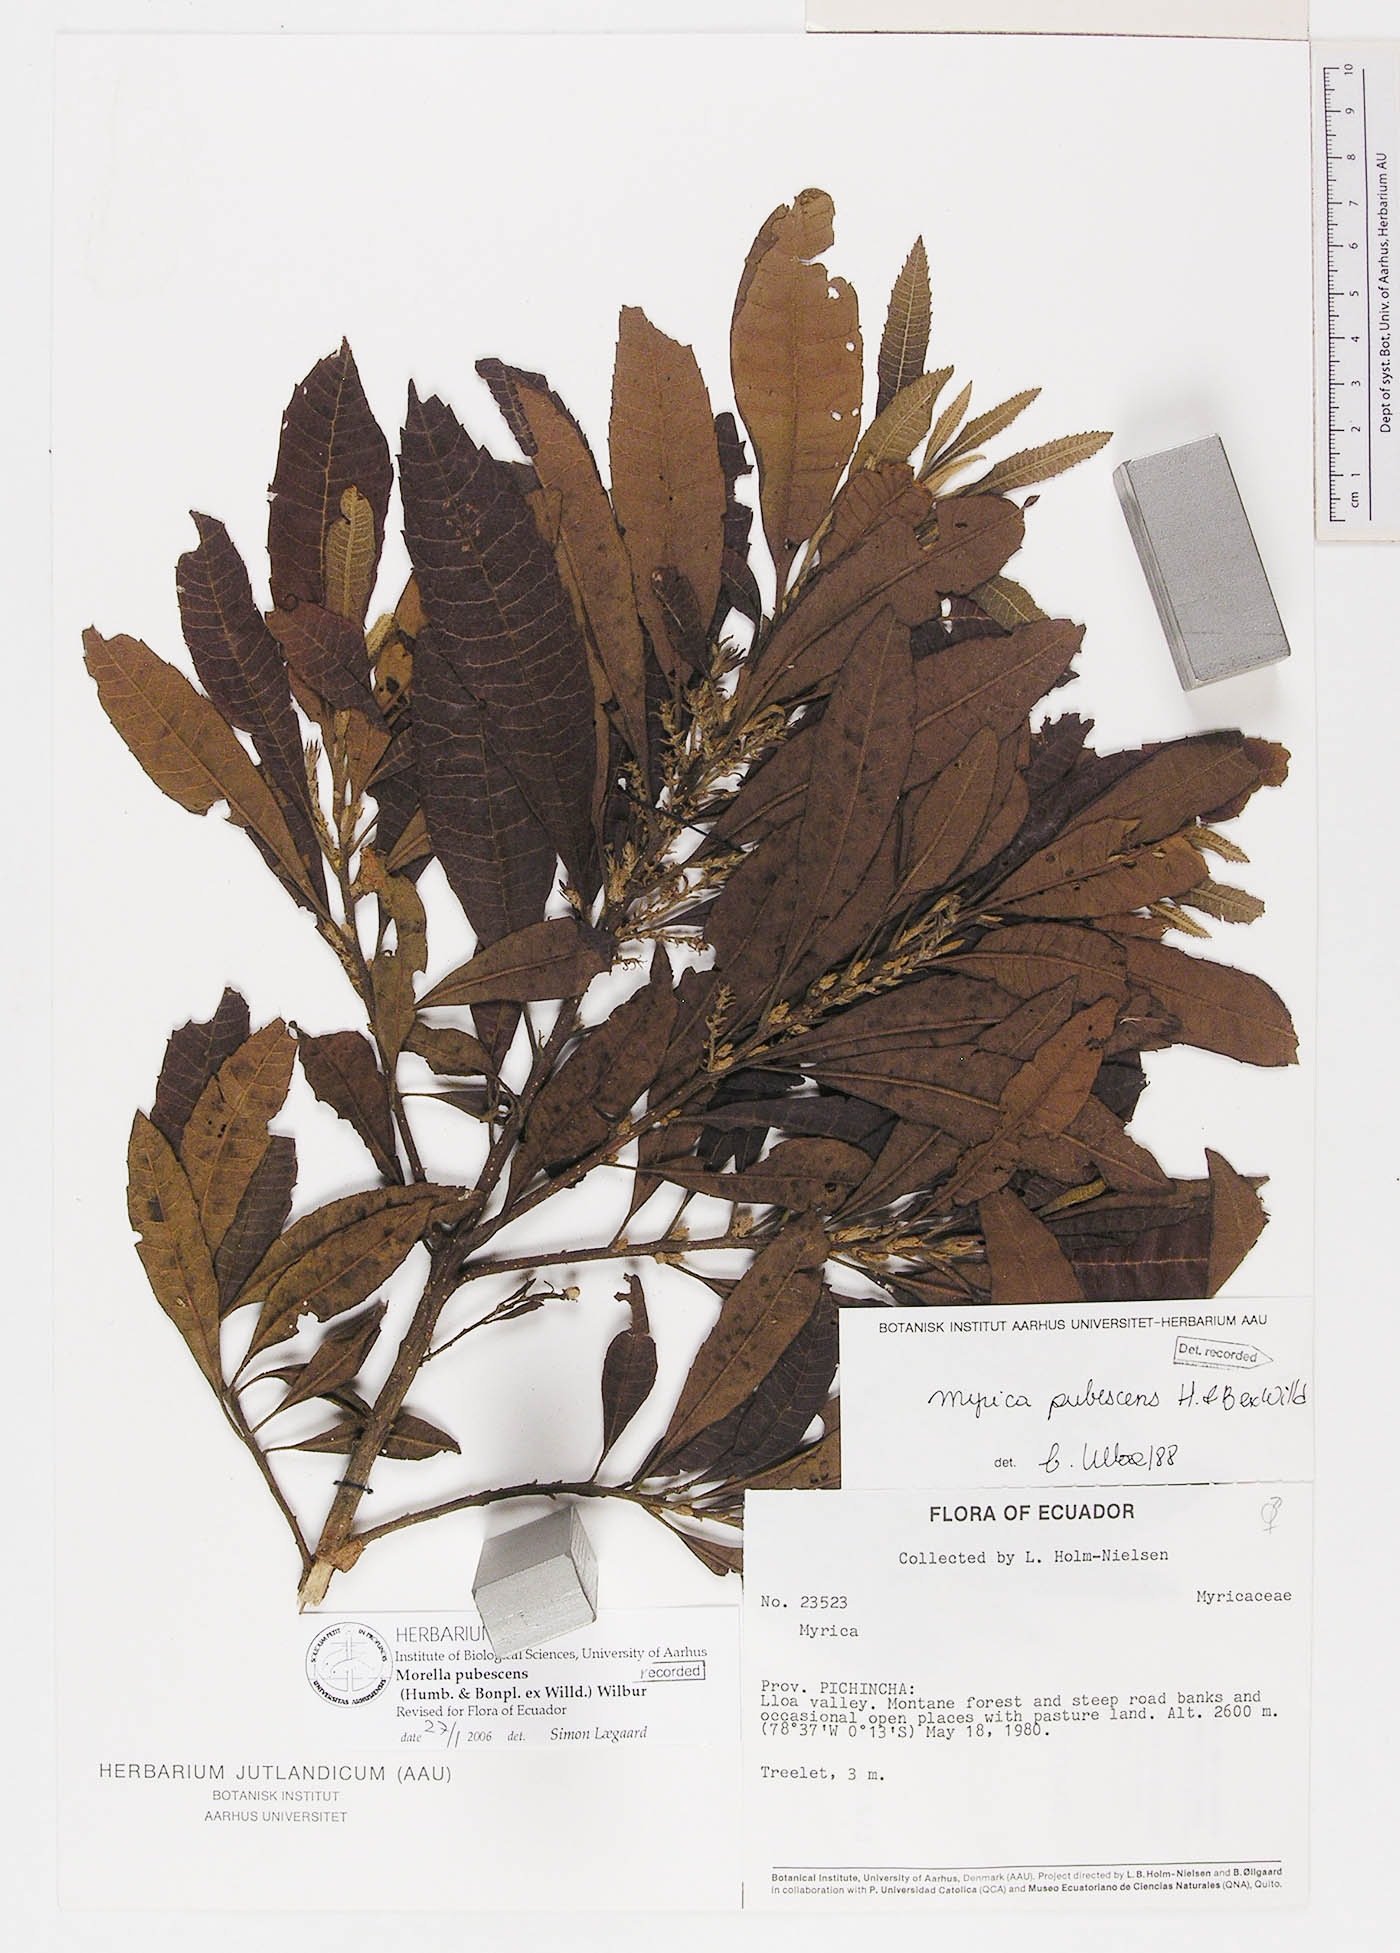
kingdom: Plantae
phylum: Tracheophyta
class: Magnoliopsida
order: Fagales
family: Myricaceae
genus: Morella
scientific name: Morella pubescens
